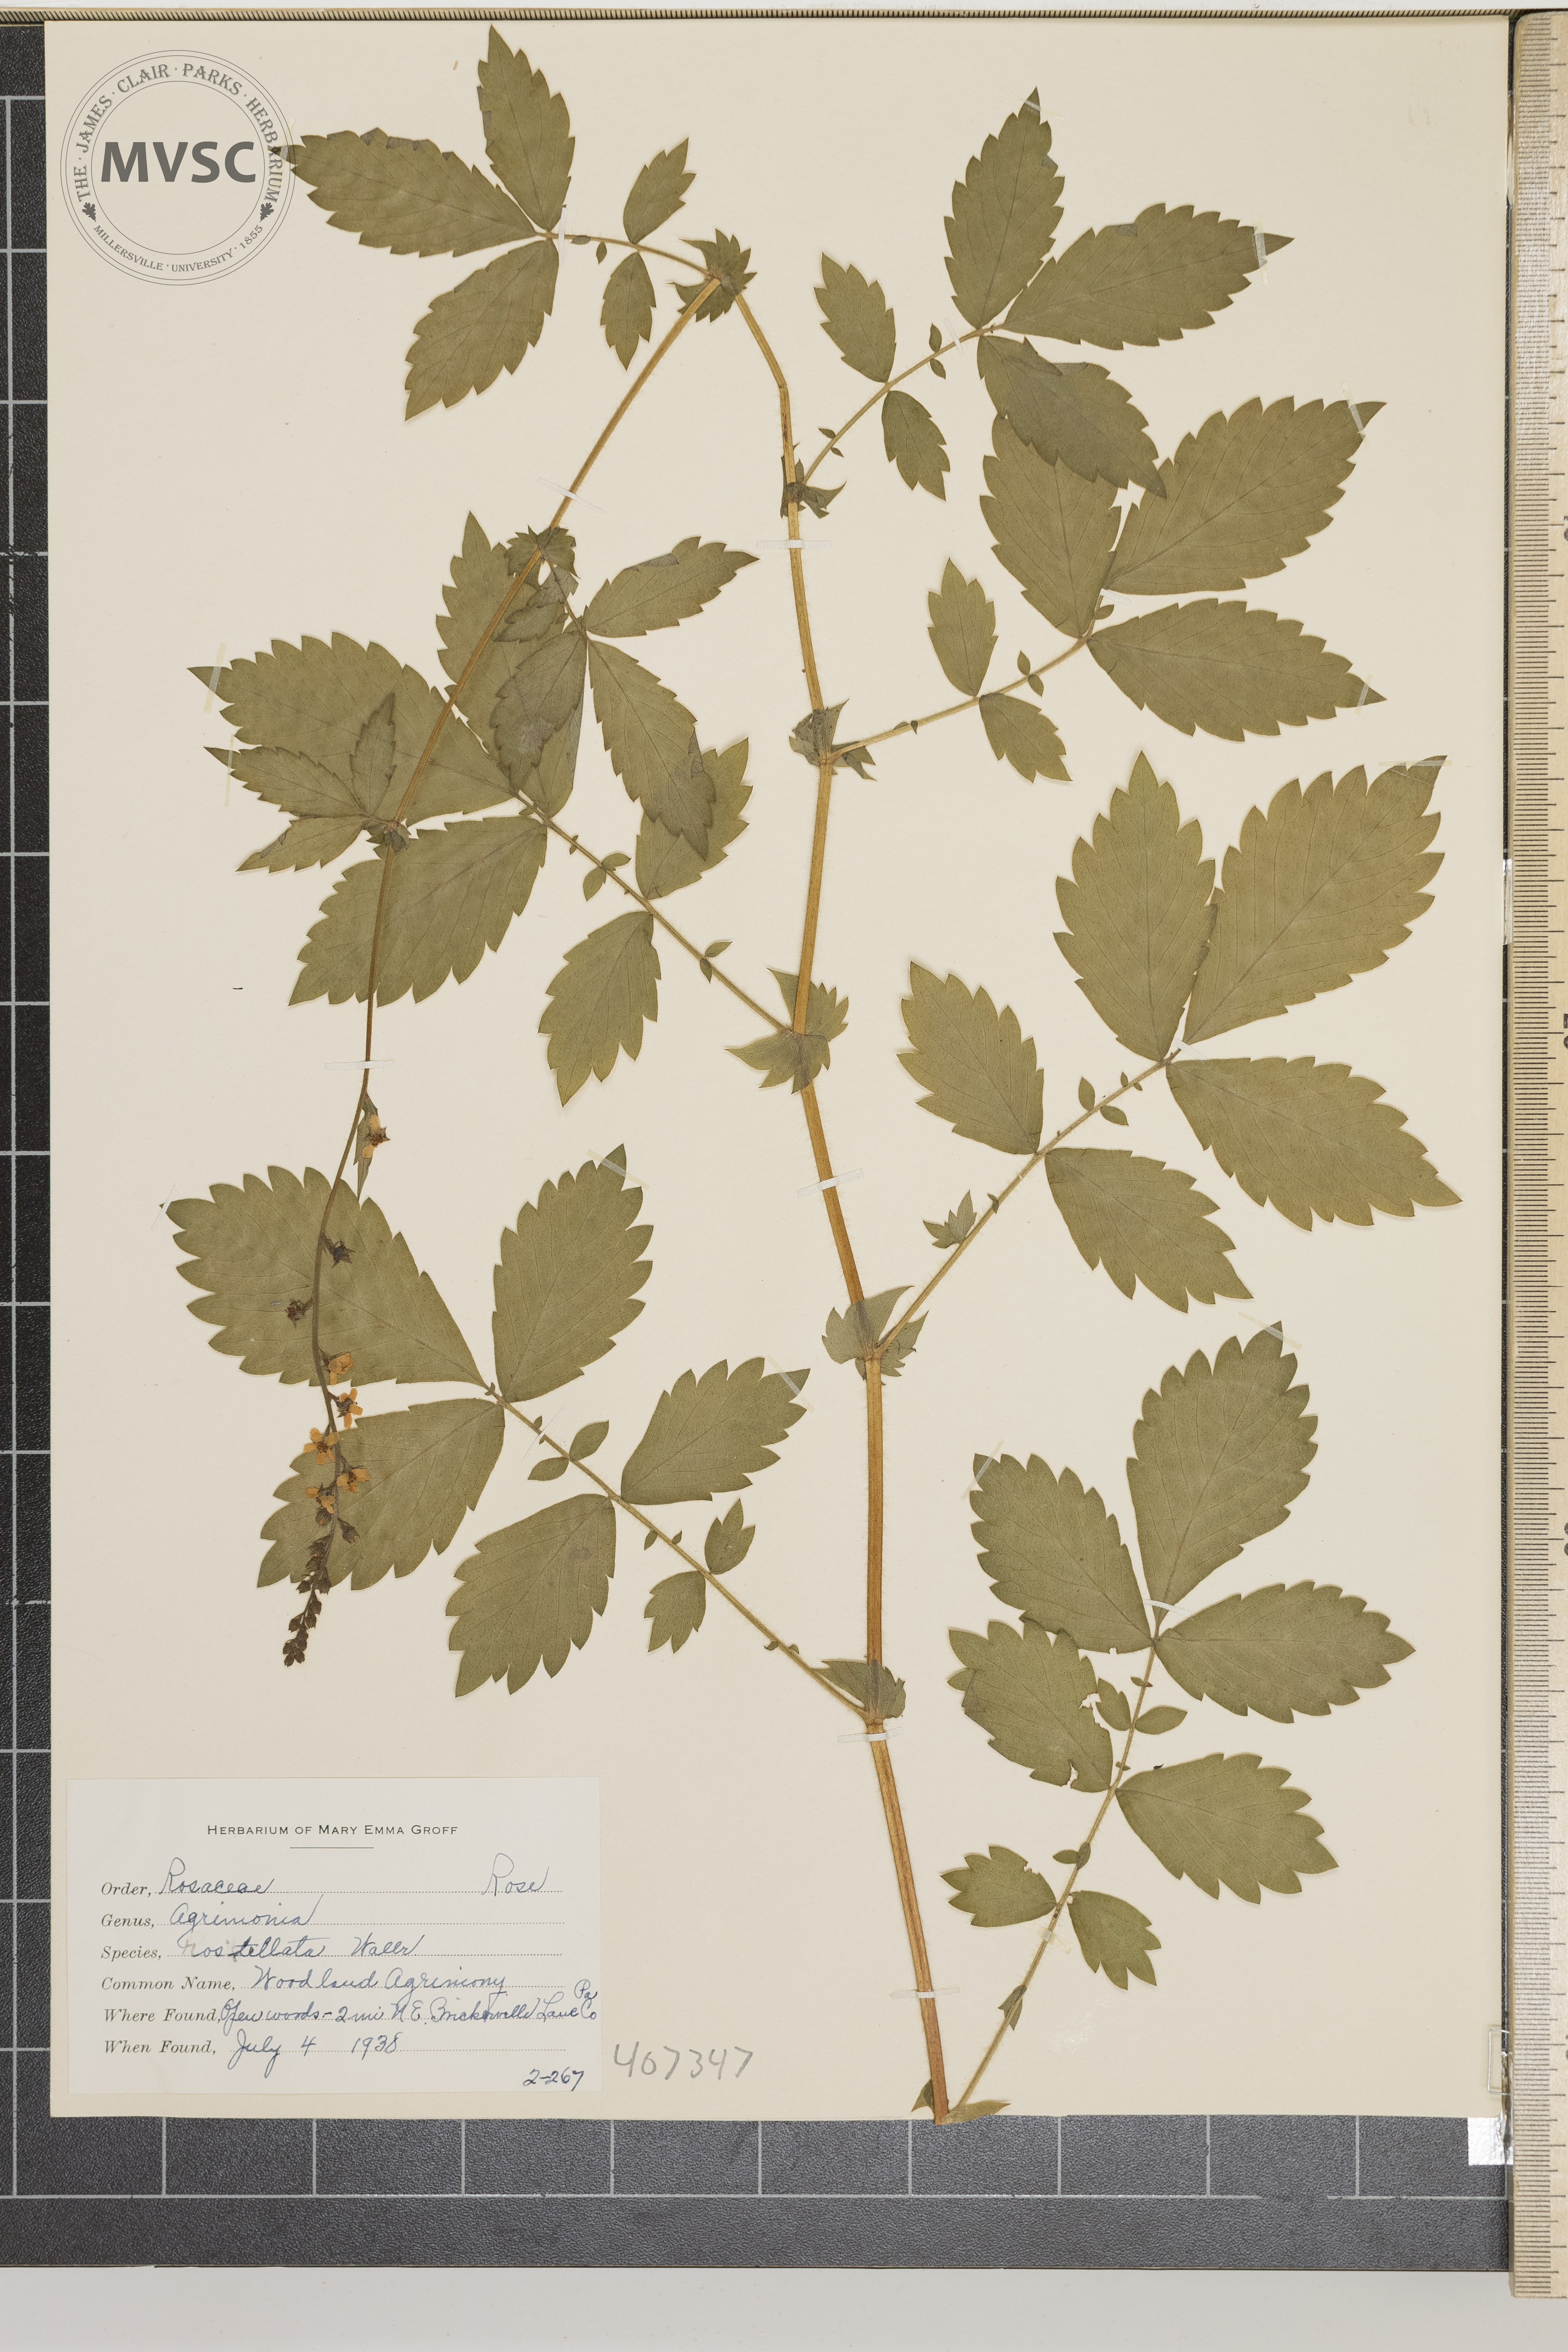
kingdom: Plantae
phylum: Tracheophyta
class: Magnoliopsida
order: Rosales
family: Rosaceae
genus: Agrimonia
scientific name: Agrimonia rostellata
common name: Woodland Agrimony
